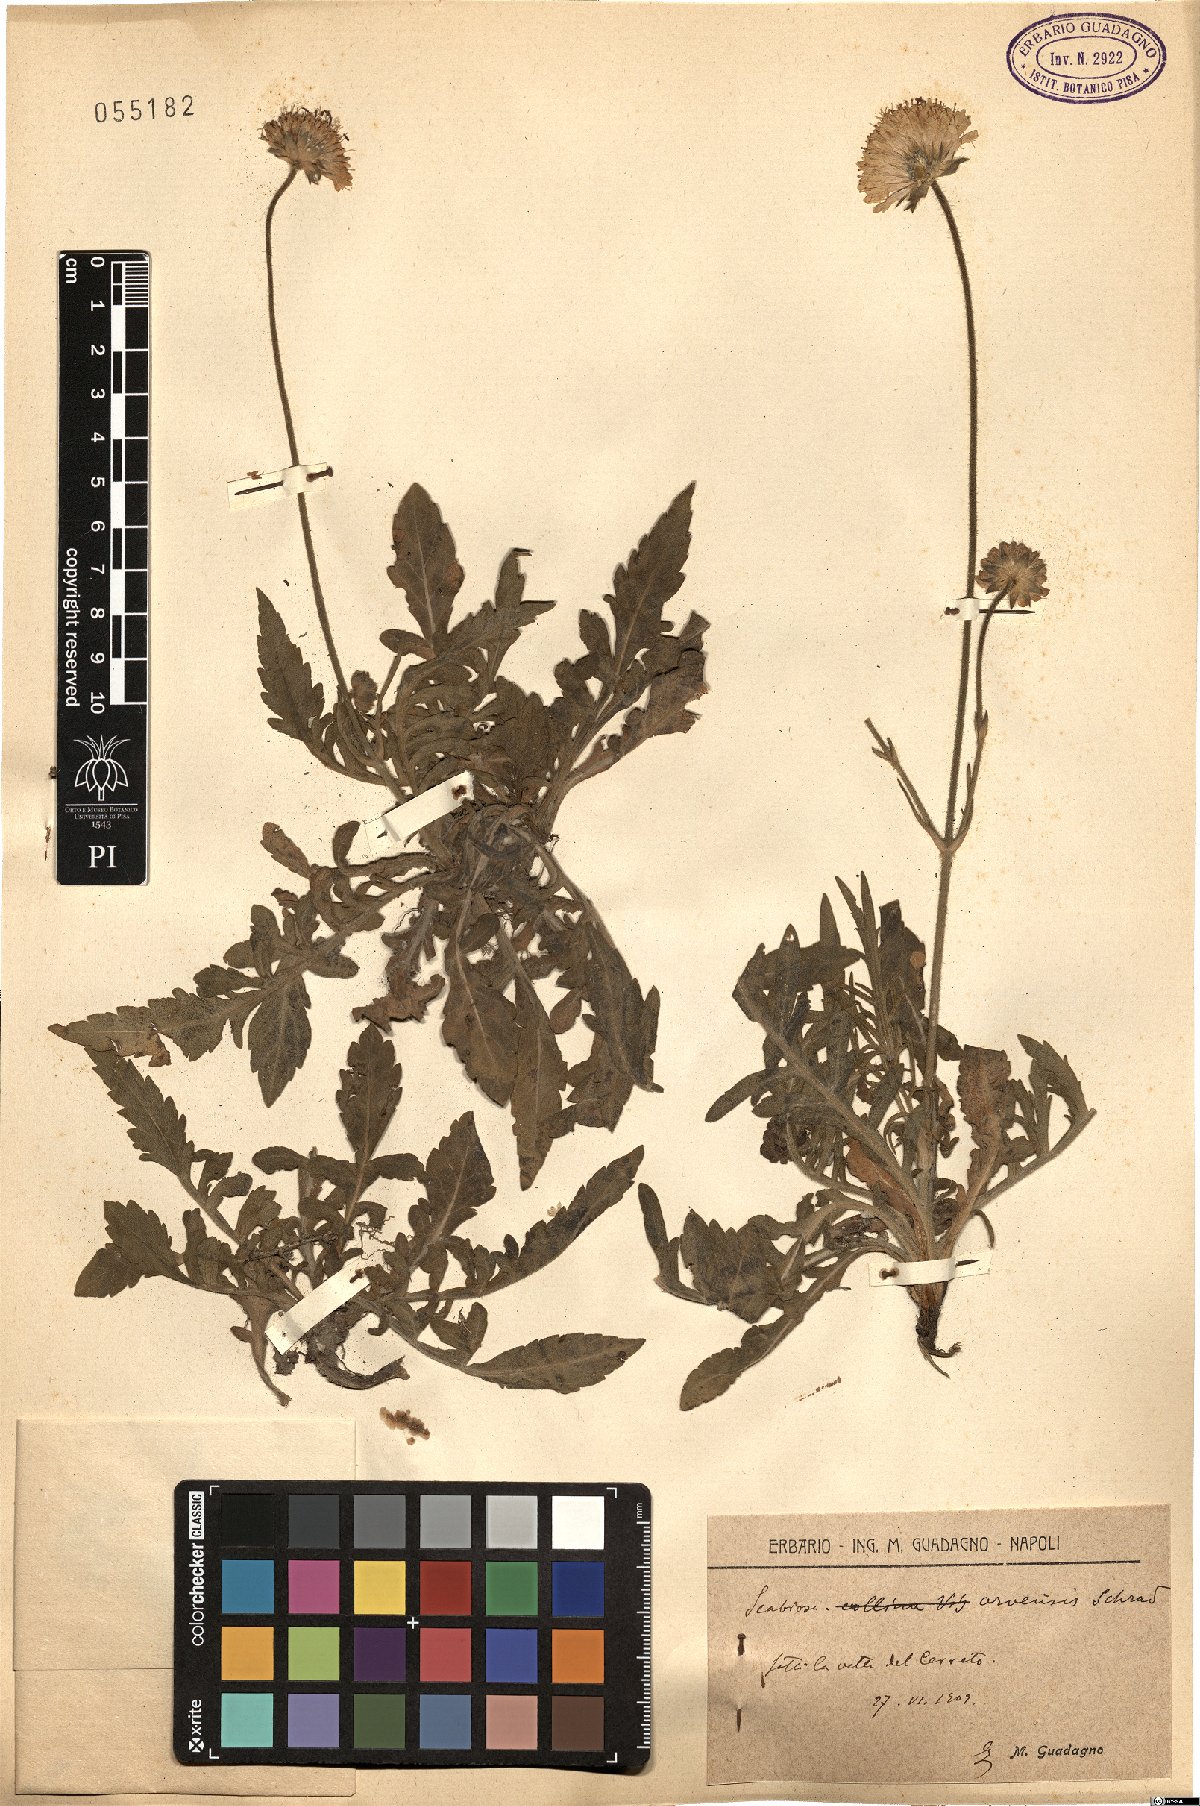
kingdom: Plantae
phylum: Tracheophyta
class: Magnoliopsida
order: Dipsacales
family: Caprifoliaceae
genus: Knautia
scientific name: Knautia arvensis
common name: Field scabiosa
